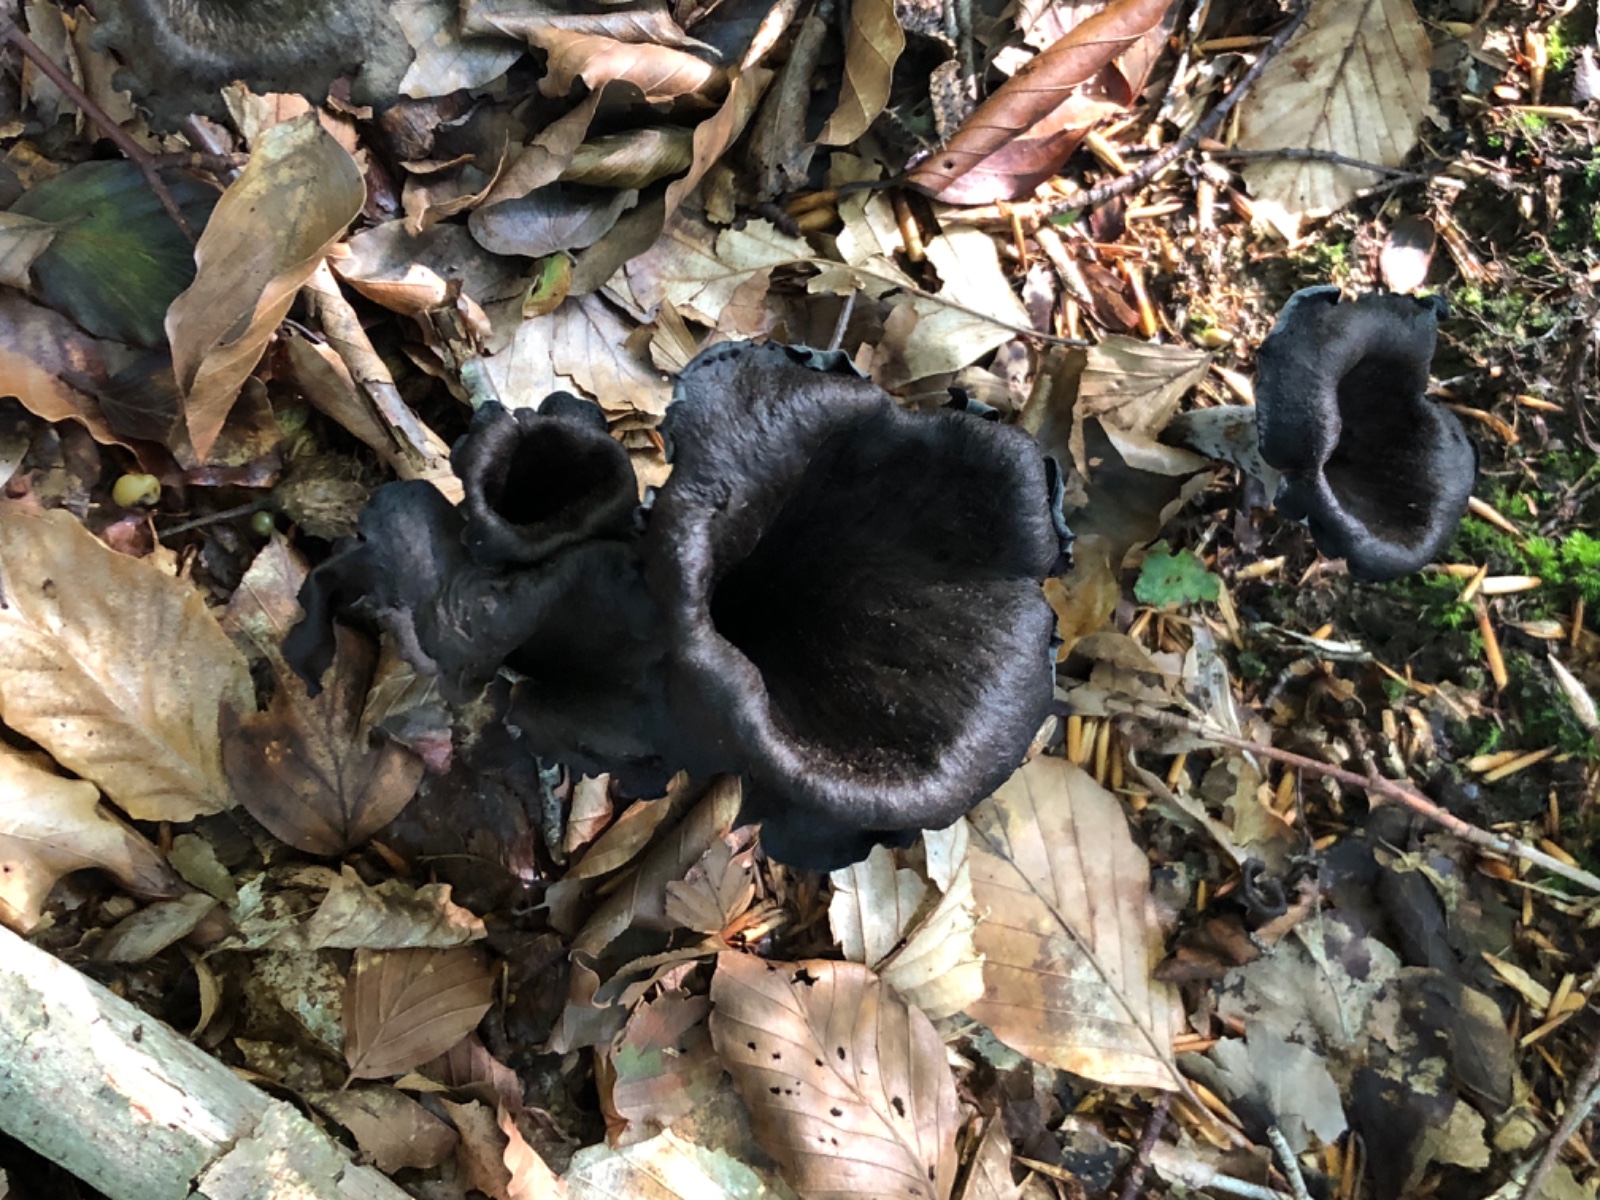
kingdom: Fungi
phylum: Basidiomycota
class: Agaricomycetes
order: Cantharellales
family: Hydnaceae
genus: Craterellus
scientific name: Craterellus cornucopioides
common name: trompetsvamp
